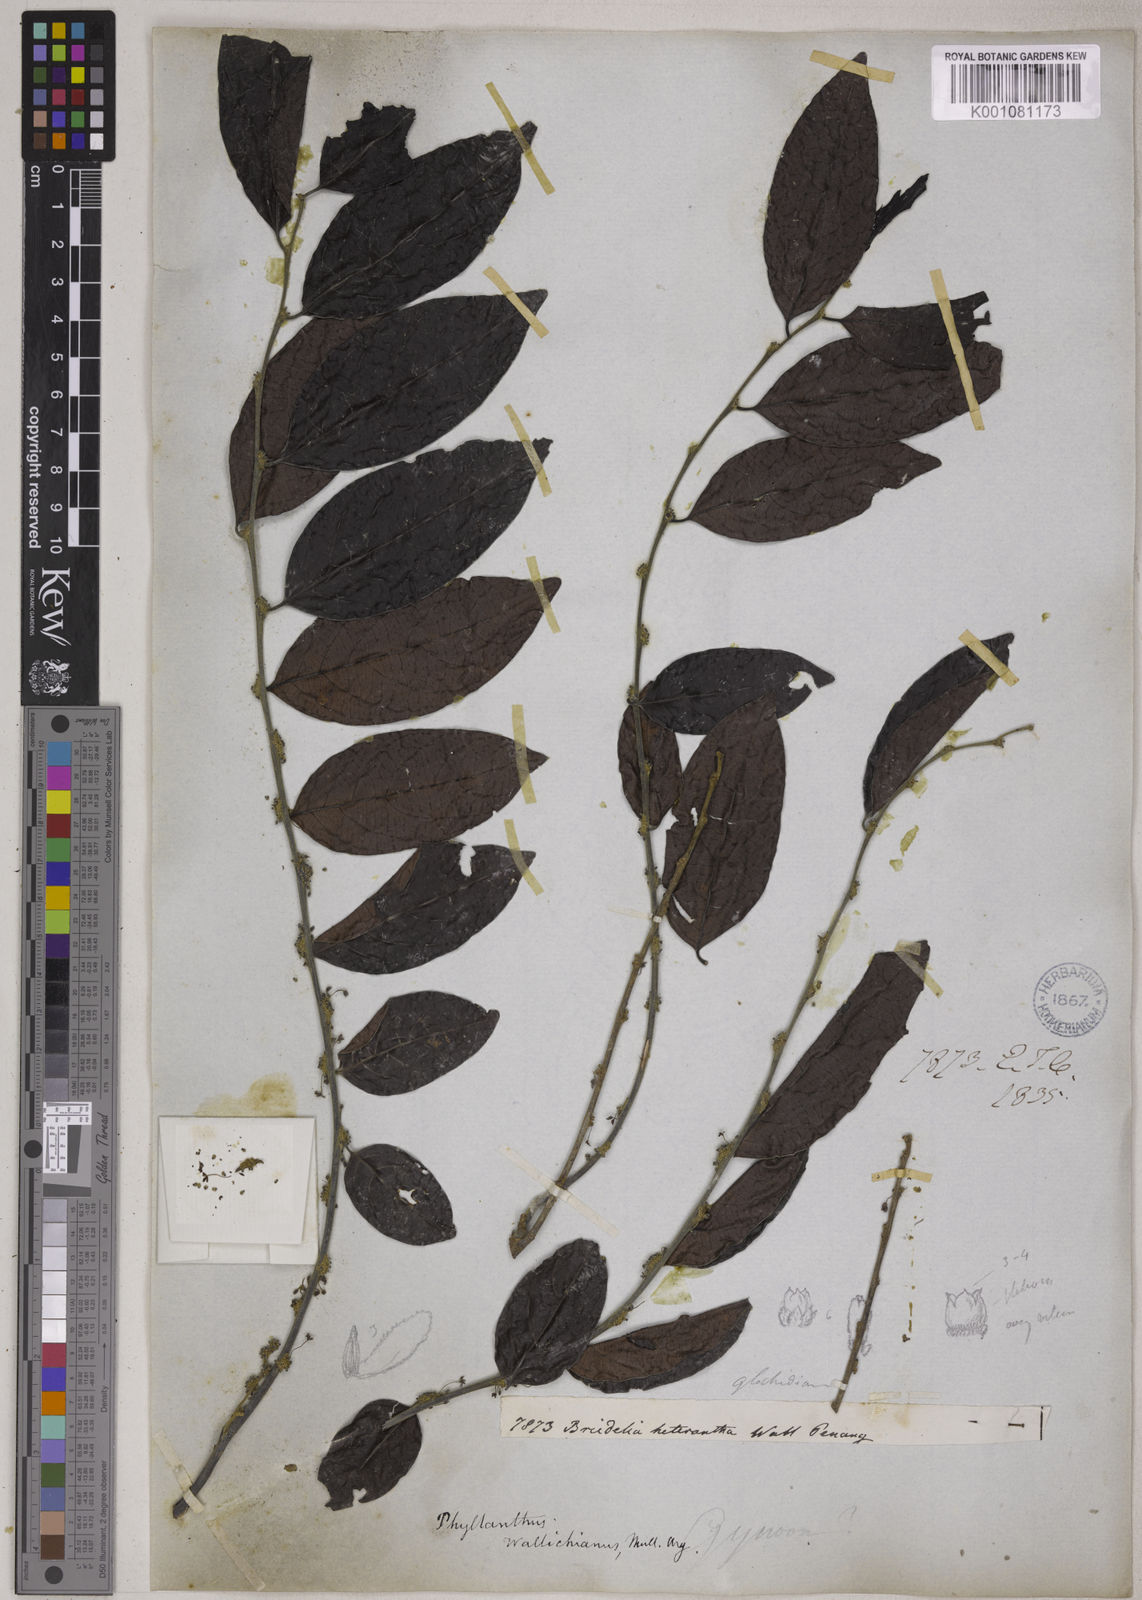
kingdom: Plantae
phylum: Tracheophyta
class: Magnoliopsida
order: Malpighiales
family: Phyllanthaceae
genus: Glochidion
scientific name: Glochidion glomerulatum
